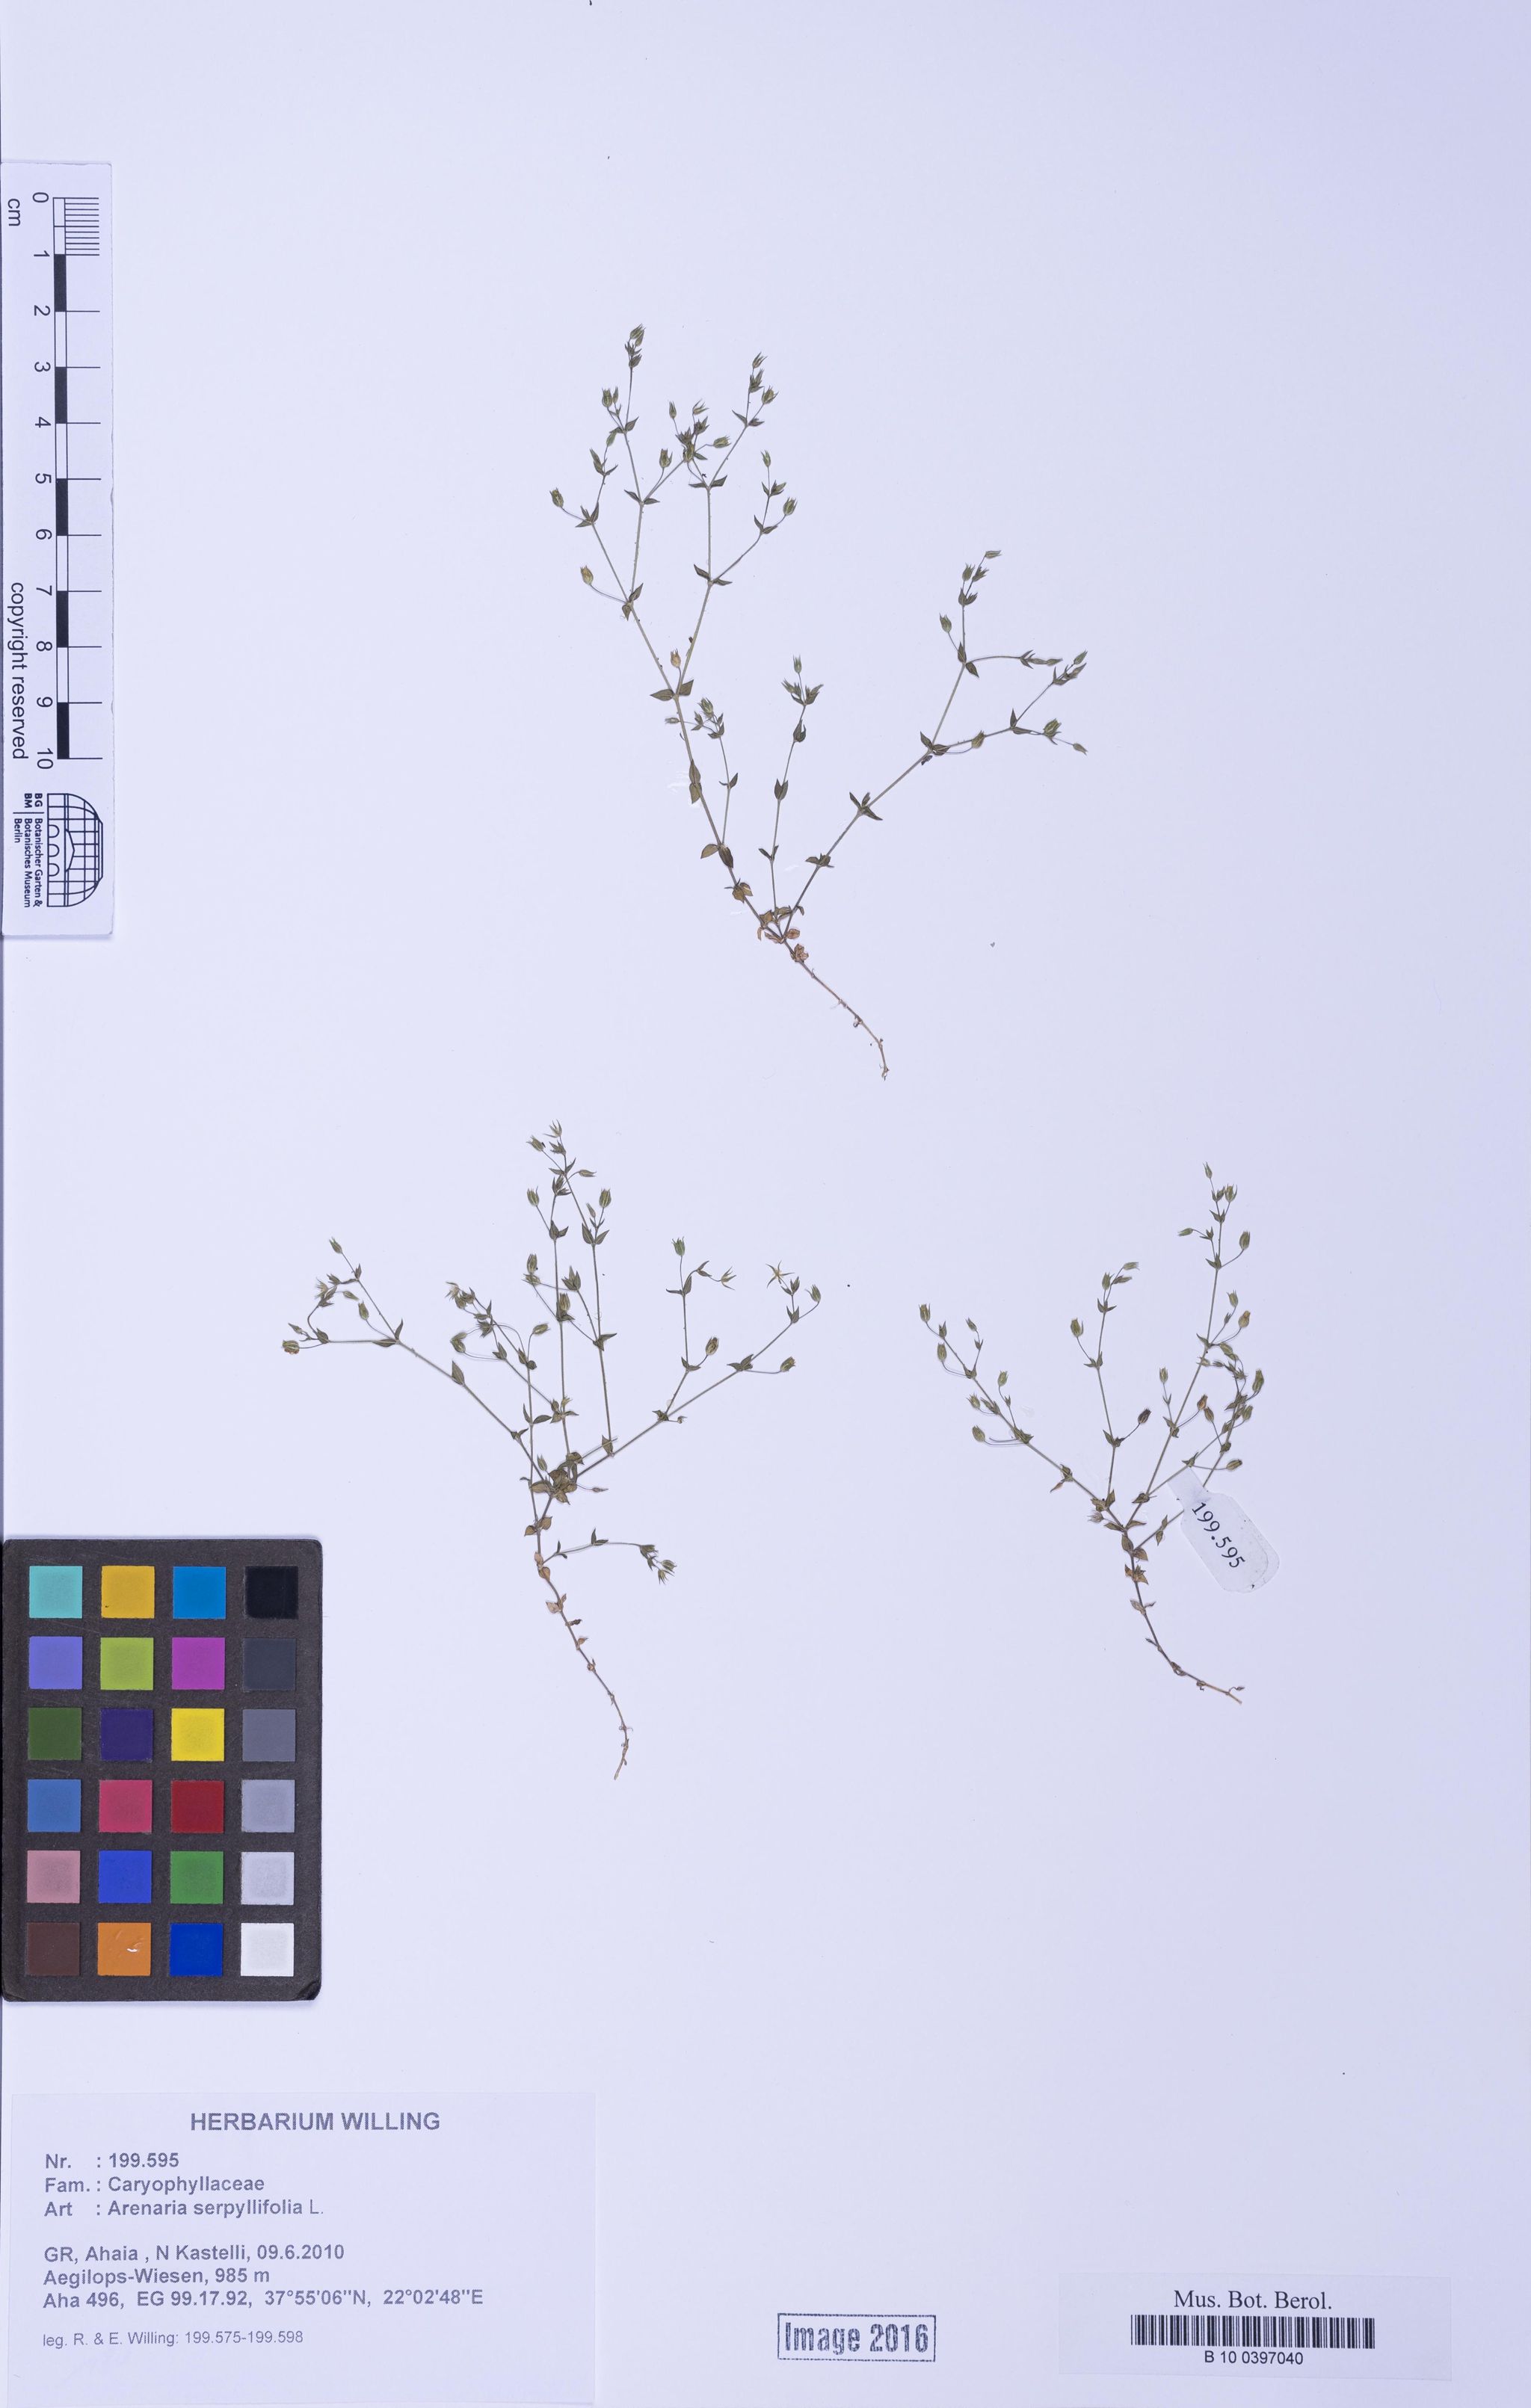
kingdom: Plantae
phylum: Tracheophyta
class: Magnoliopsida
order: Caryophyllales
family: Caryophyllaceae
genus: Arenaria
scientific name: Arenaria serpyllifolia
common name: Thyme-leaved sandwort
